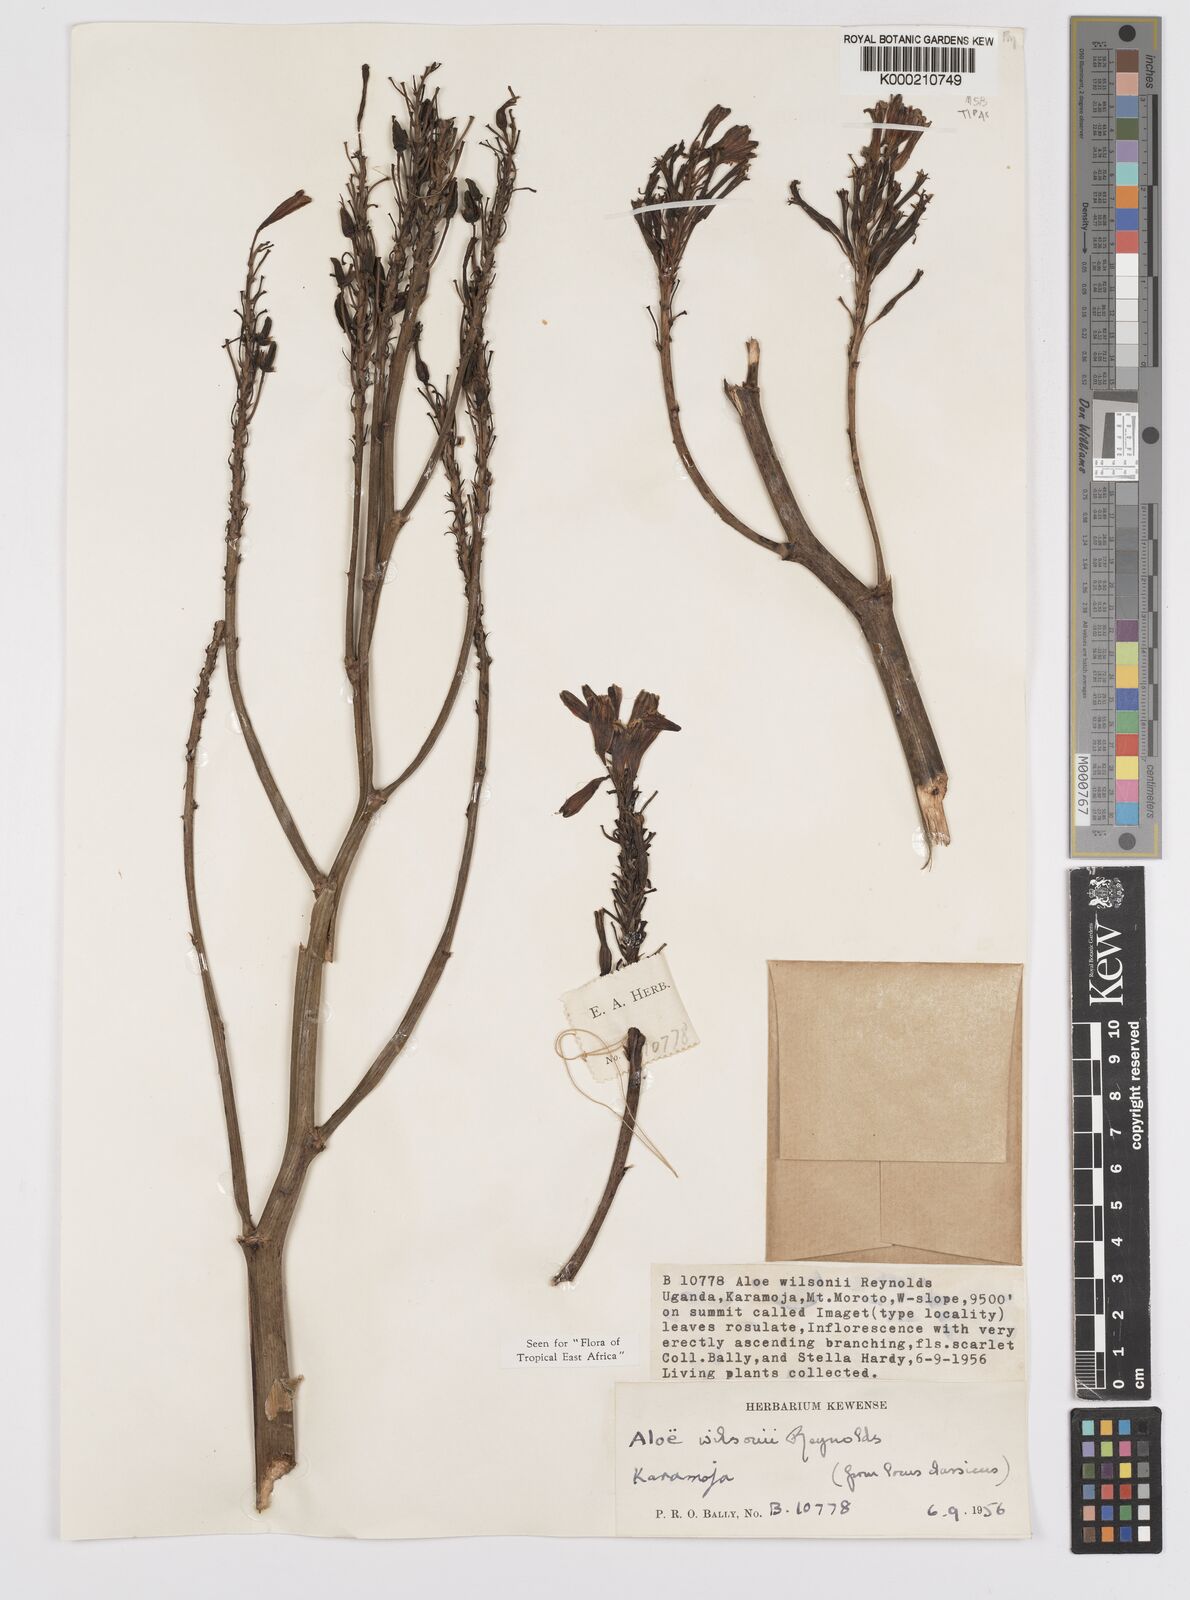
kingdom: Plantae
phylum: Tracheophyta
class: Liliopsida
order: Asparagales
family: Asphodelaceae
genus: Aloe
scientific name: Aloe wilsonii
